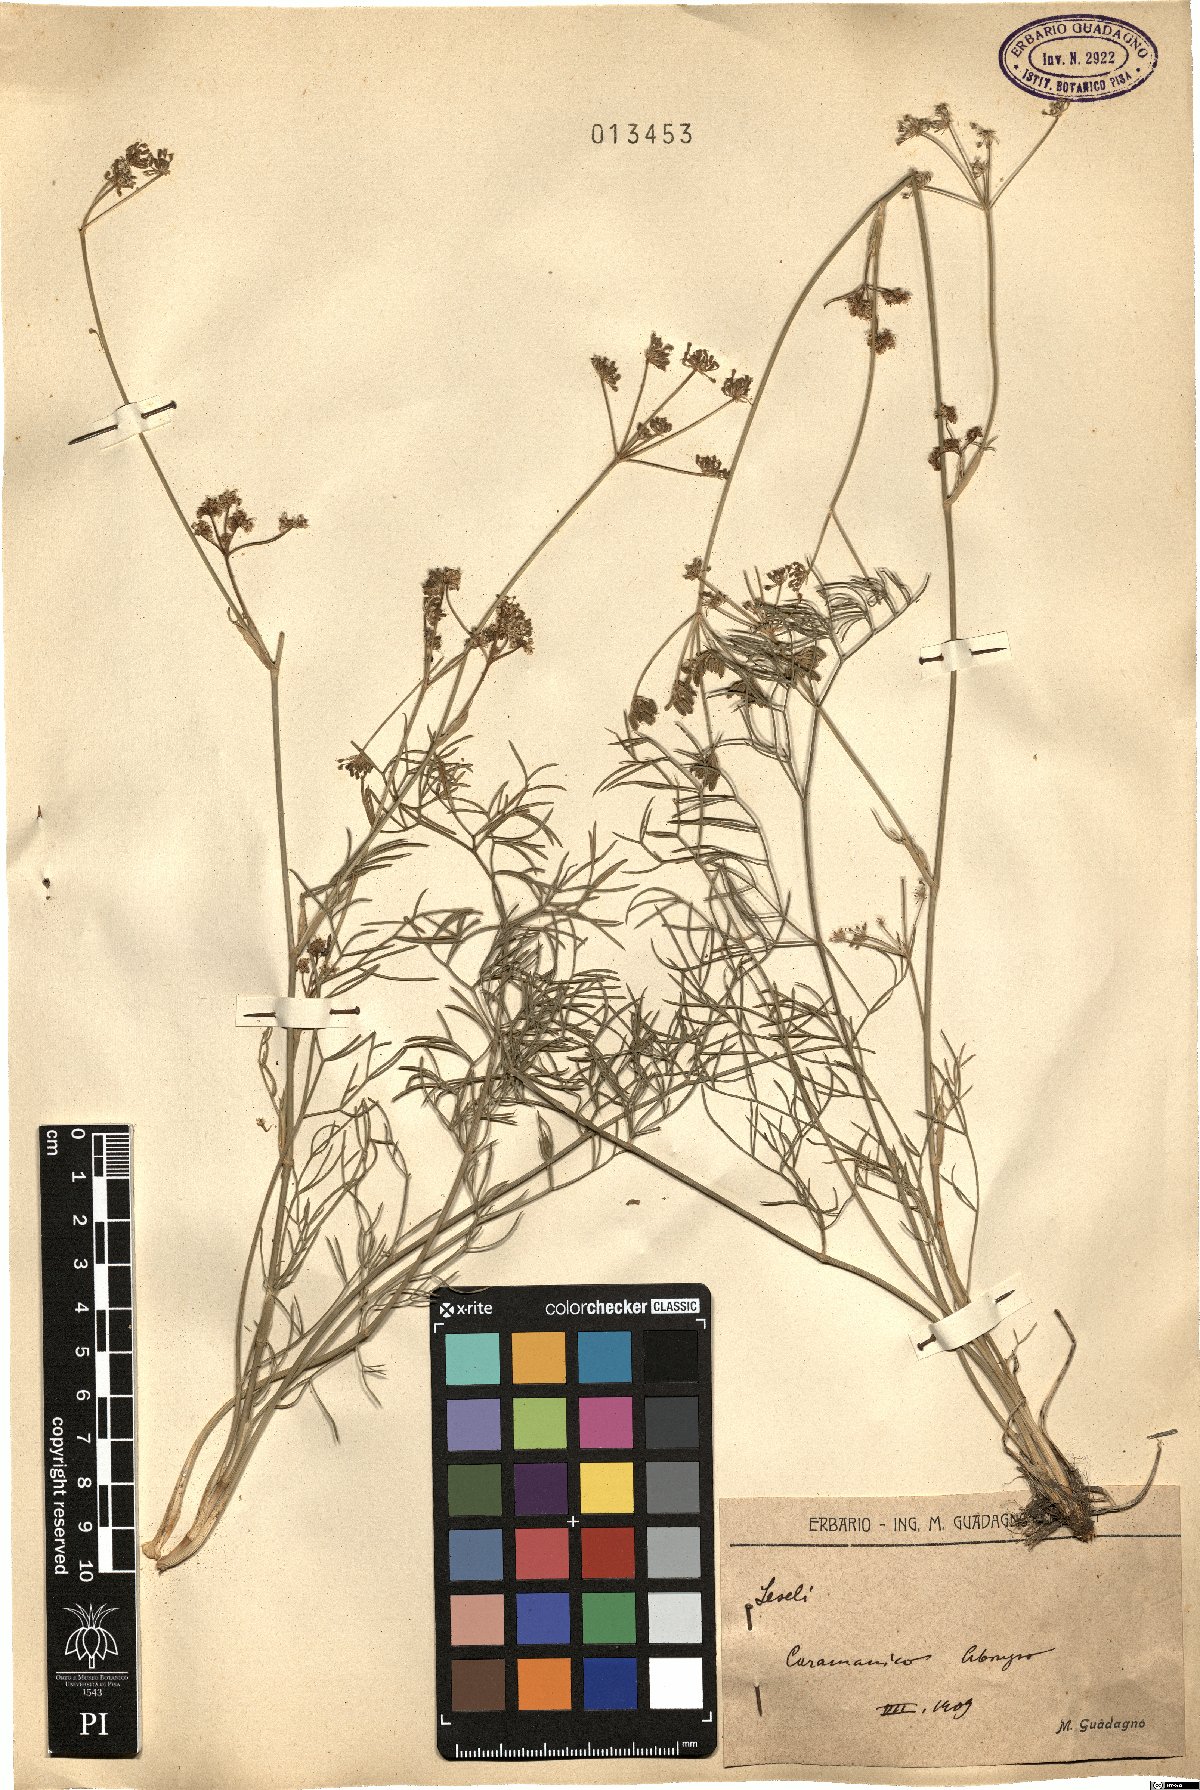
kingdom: Plantae
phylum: Tracheophyta
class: Magnoliopsida
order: Apiales
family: Apiaceae
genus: Seseli
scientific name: Seseli
